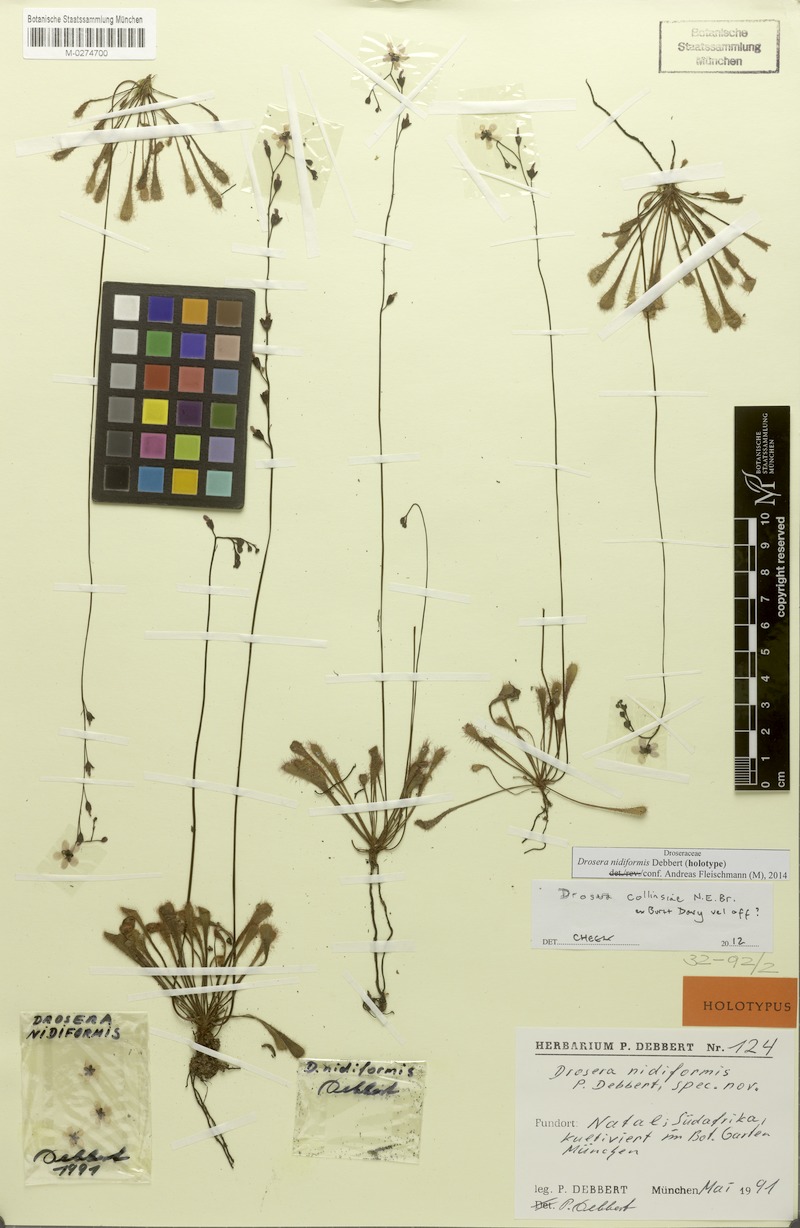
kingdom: Plantae
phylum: Tracheophyta
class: Magnoliopsida
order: Caryophyllales
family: Droseraceae
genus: Drosera
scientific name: Drosera nidiformis
